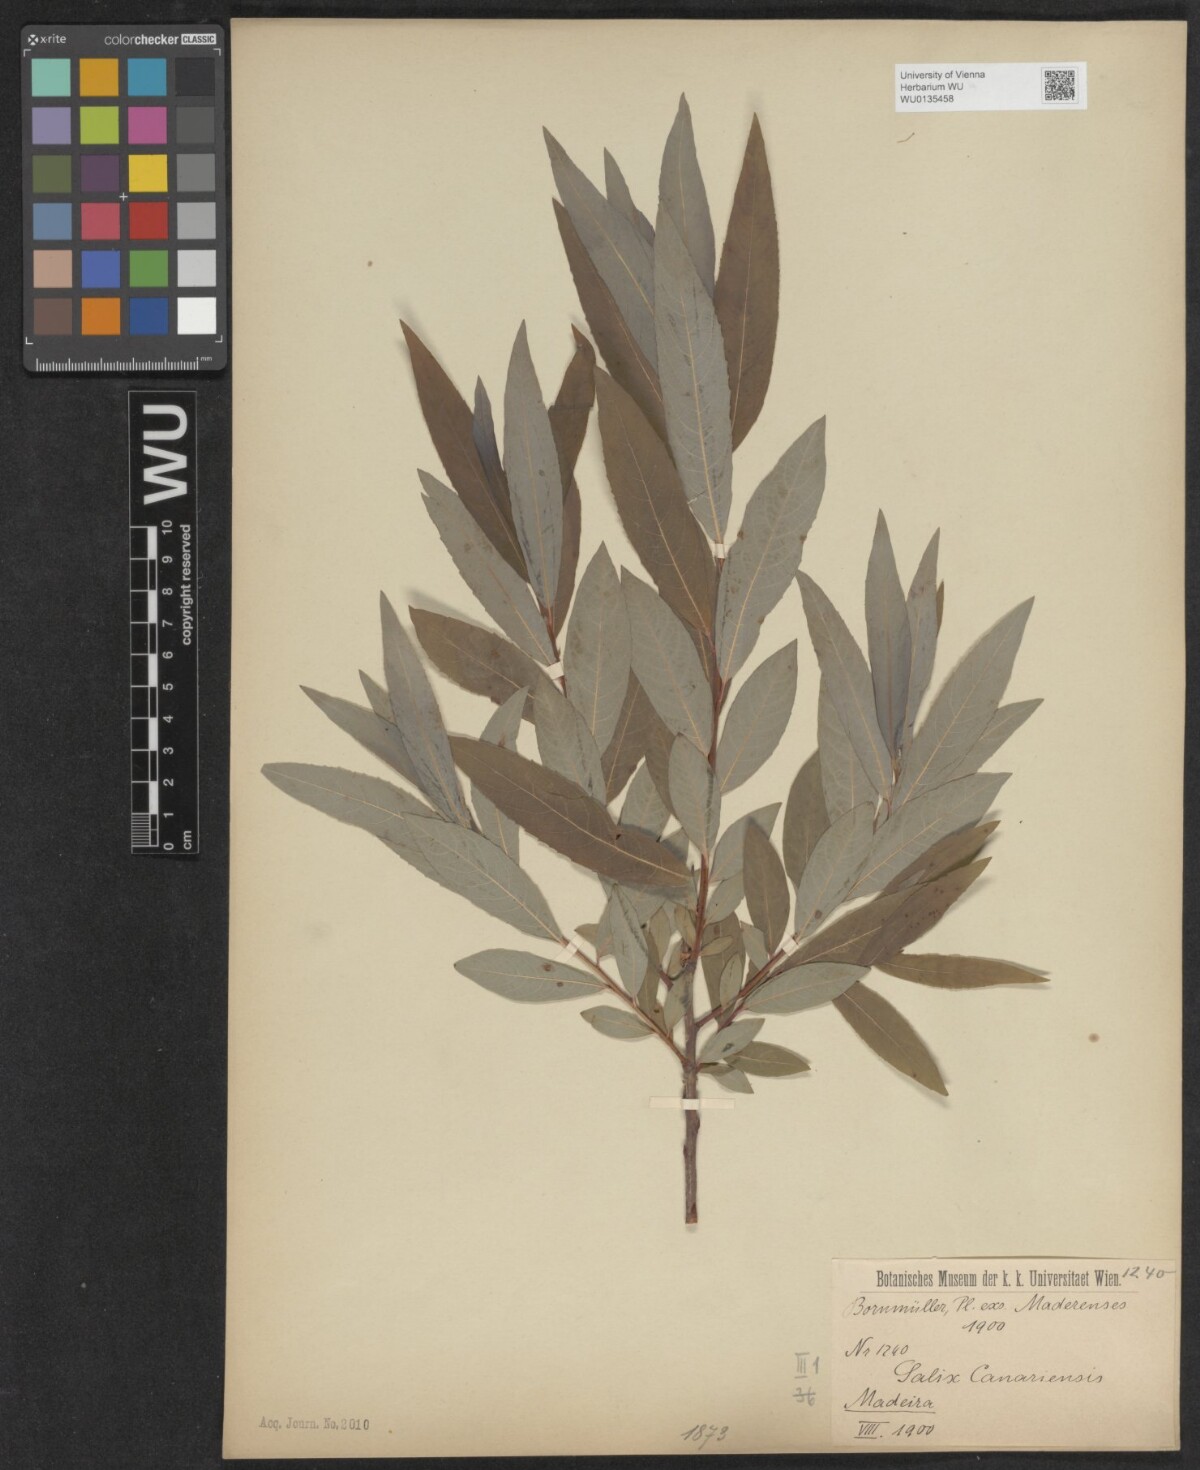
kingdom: Plantae
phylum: Tracheophyta
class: Magnoliopsida
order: Malpighiales
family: Salicaceae
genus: Salix
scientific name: Salix canariensis
